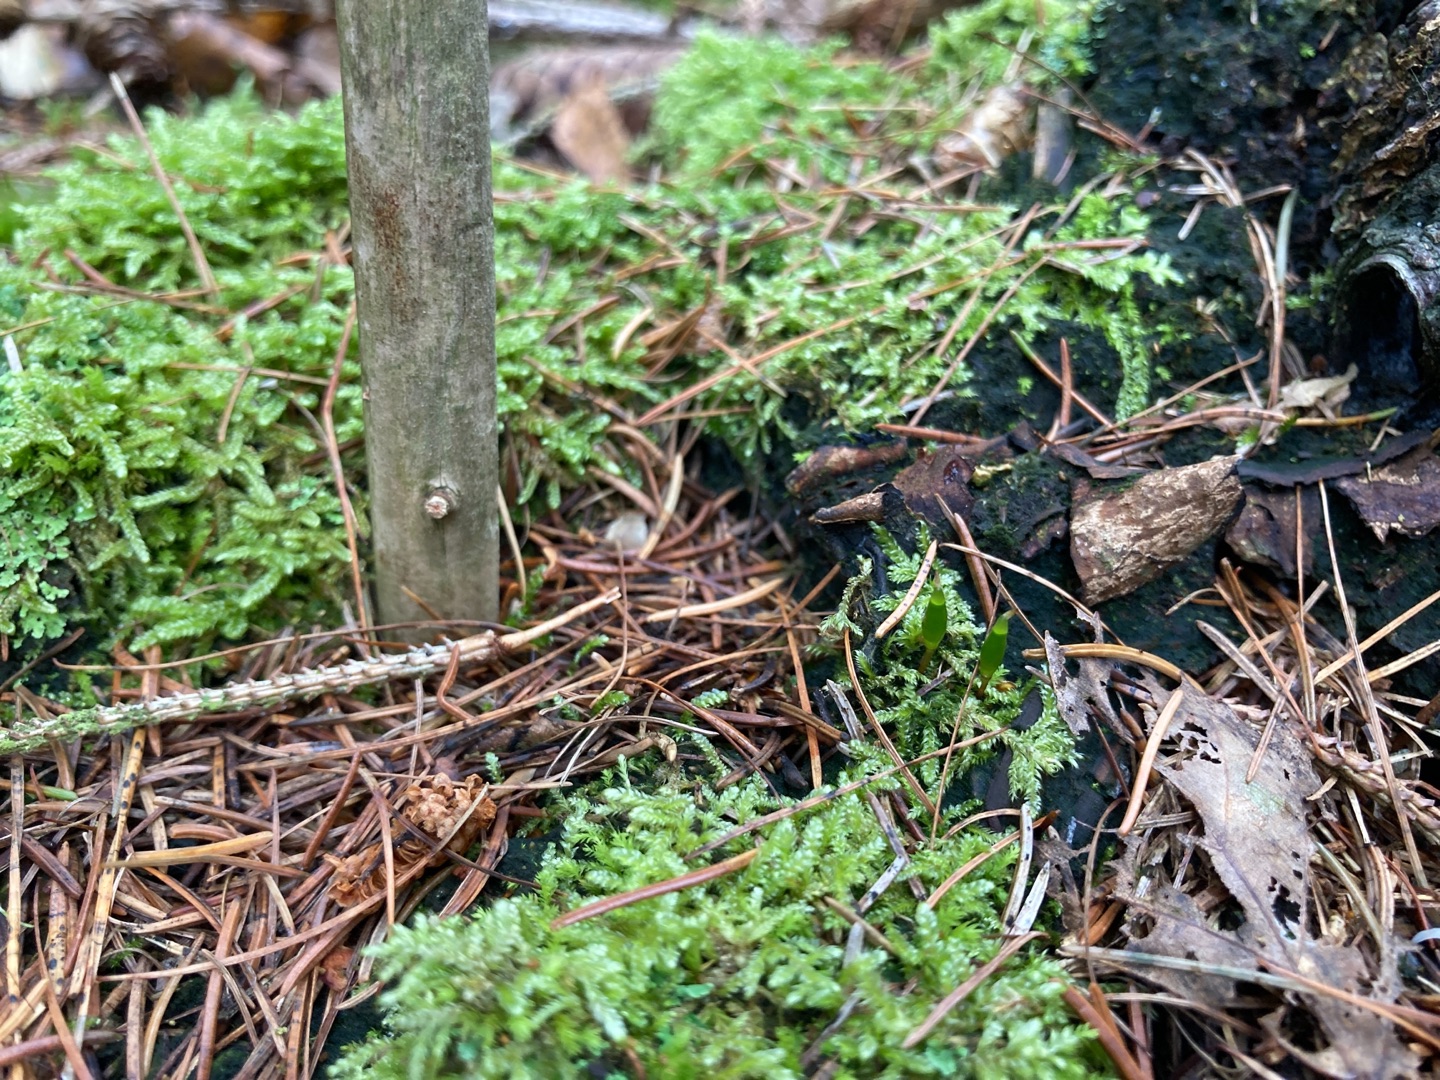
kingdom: Plantae
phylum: Bryophyta
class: Bryopsida
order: Buxbaumiales
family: Buxbaumiaceae
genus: Buxbaumia
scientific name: Buxbaumia viridis
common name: Grøn buxbaumia
